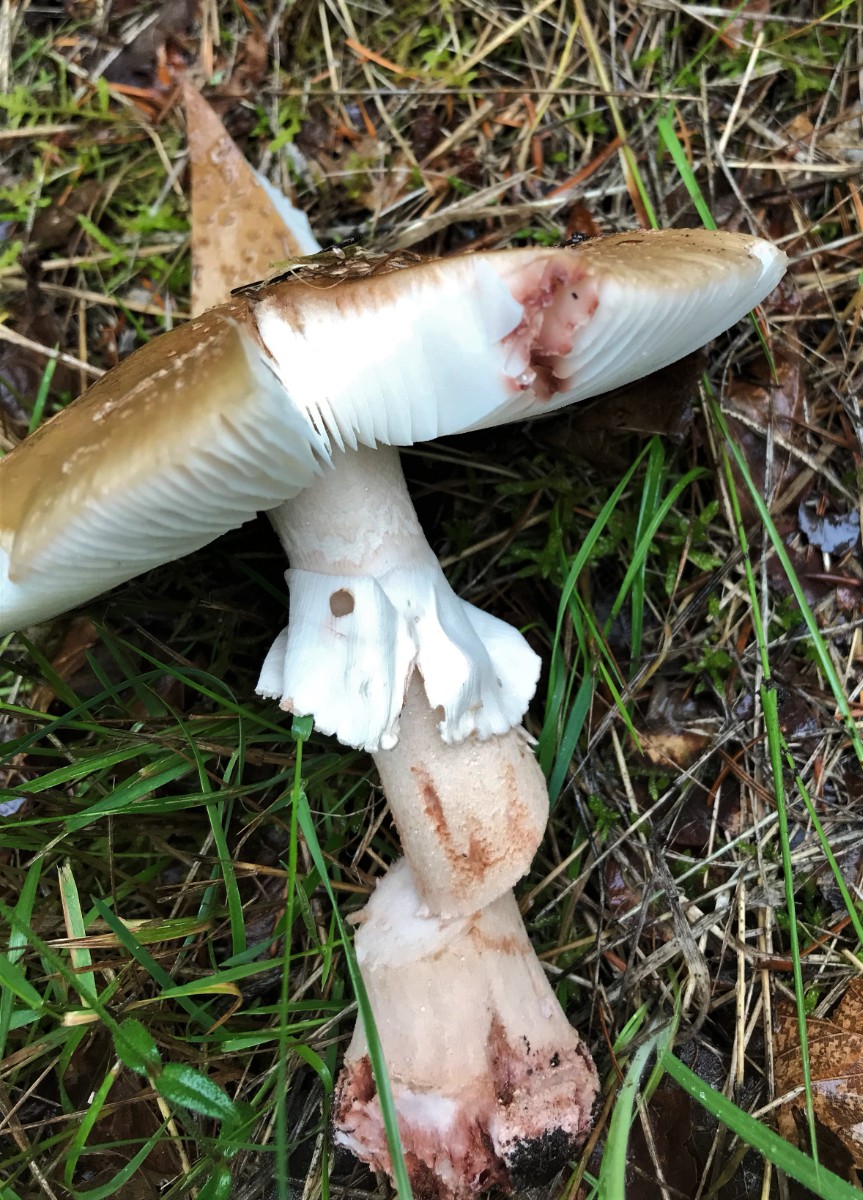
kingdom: Fungi
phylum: Basidiomycota
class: Agaricomycetes
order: Agaricales
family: Amanitaceae
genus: Amanita
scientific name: Amanita rubescens
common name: rødmende fluesvamp
